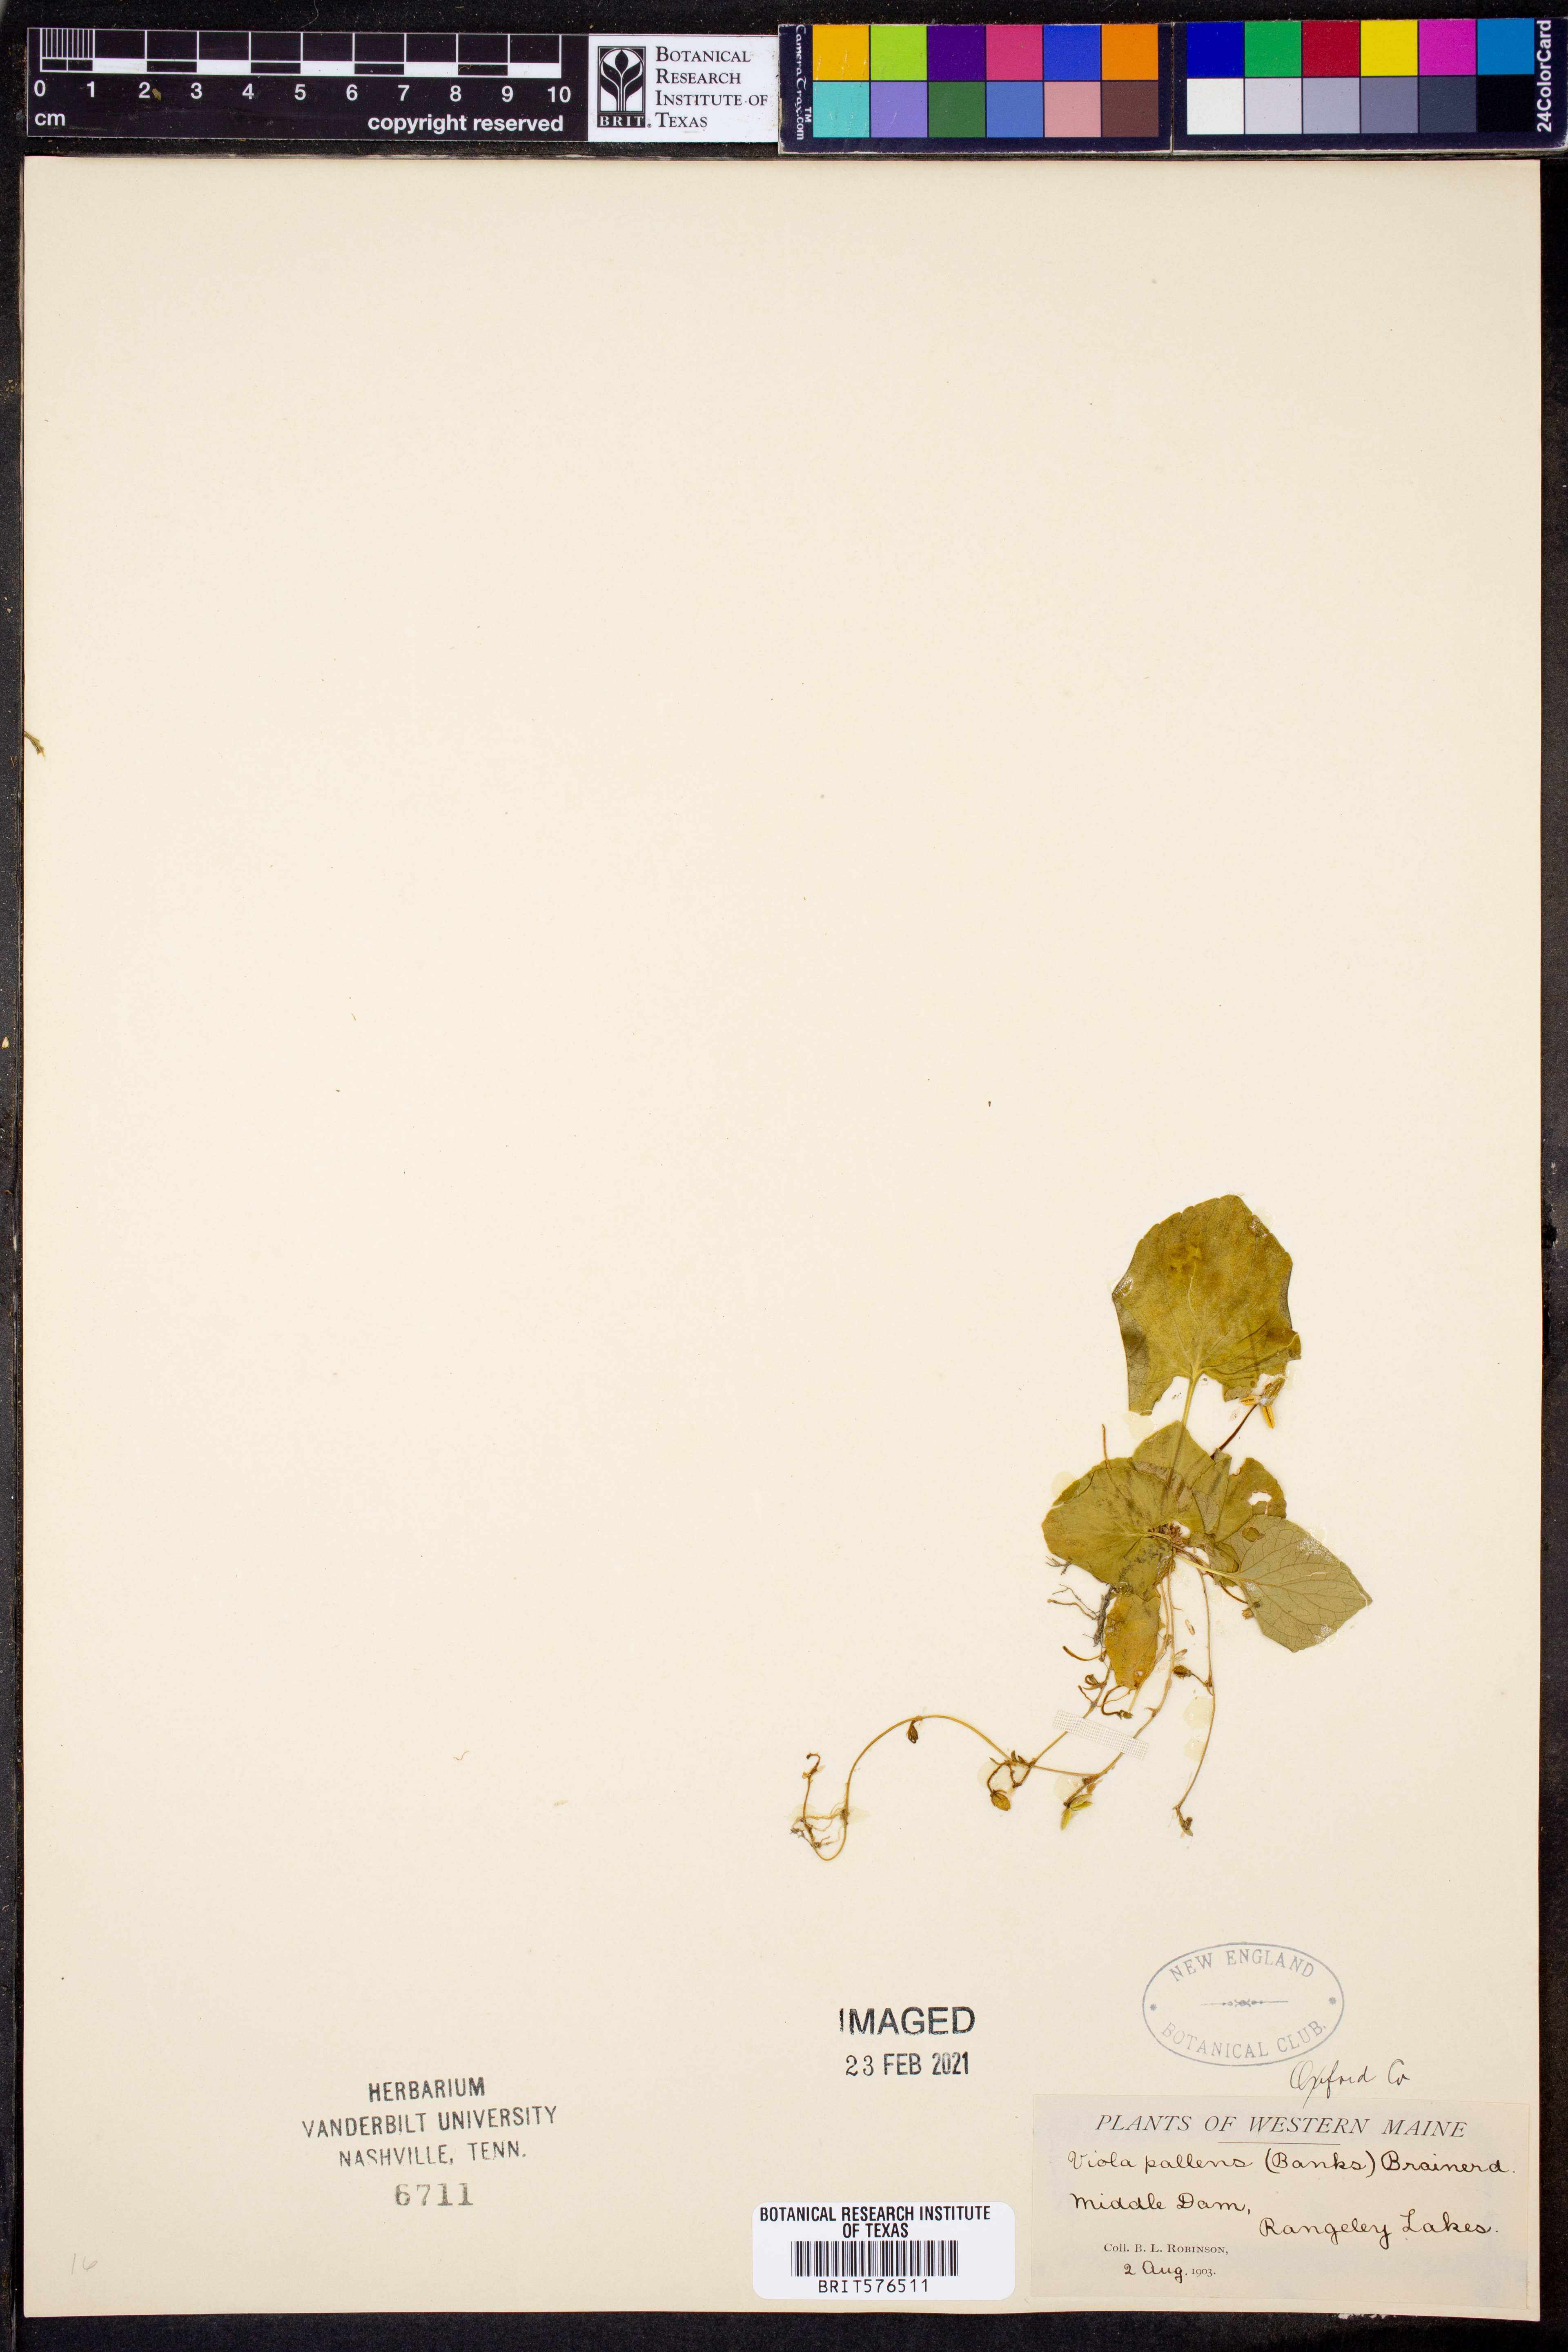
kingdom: Plantae
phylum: Tracheophyta
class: Magnoliopsida
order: Malpighiales
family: Violaceae
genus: Viola
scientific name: Viola palustris
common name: Marsh violet
